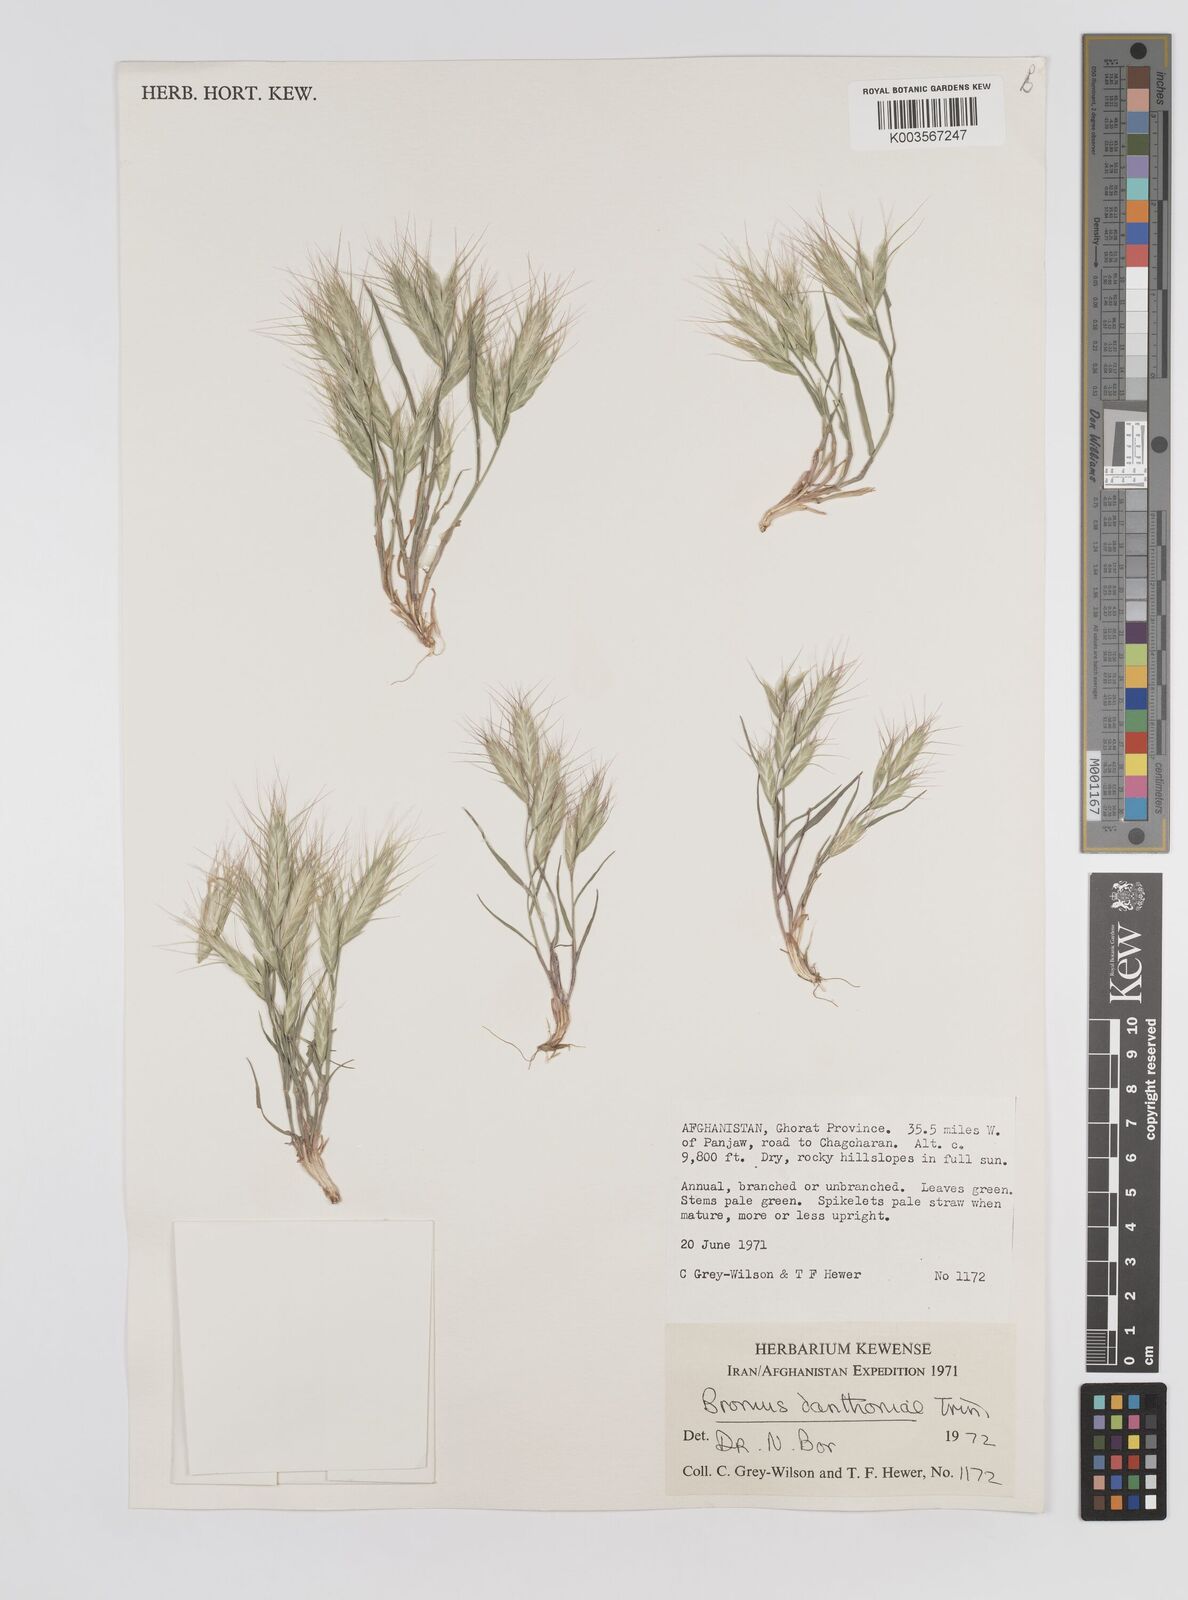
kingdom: Plantae
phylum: Tracheophyta
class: Liliopsida
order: Poales
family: Poaceae
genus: Bromus
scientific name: Bromus danthoniae
